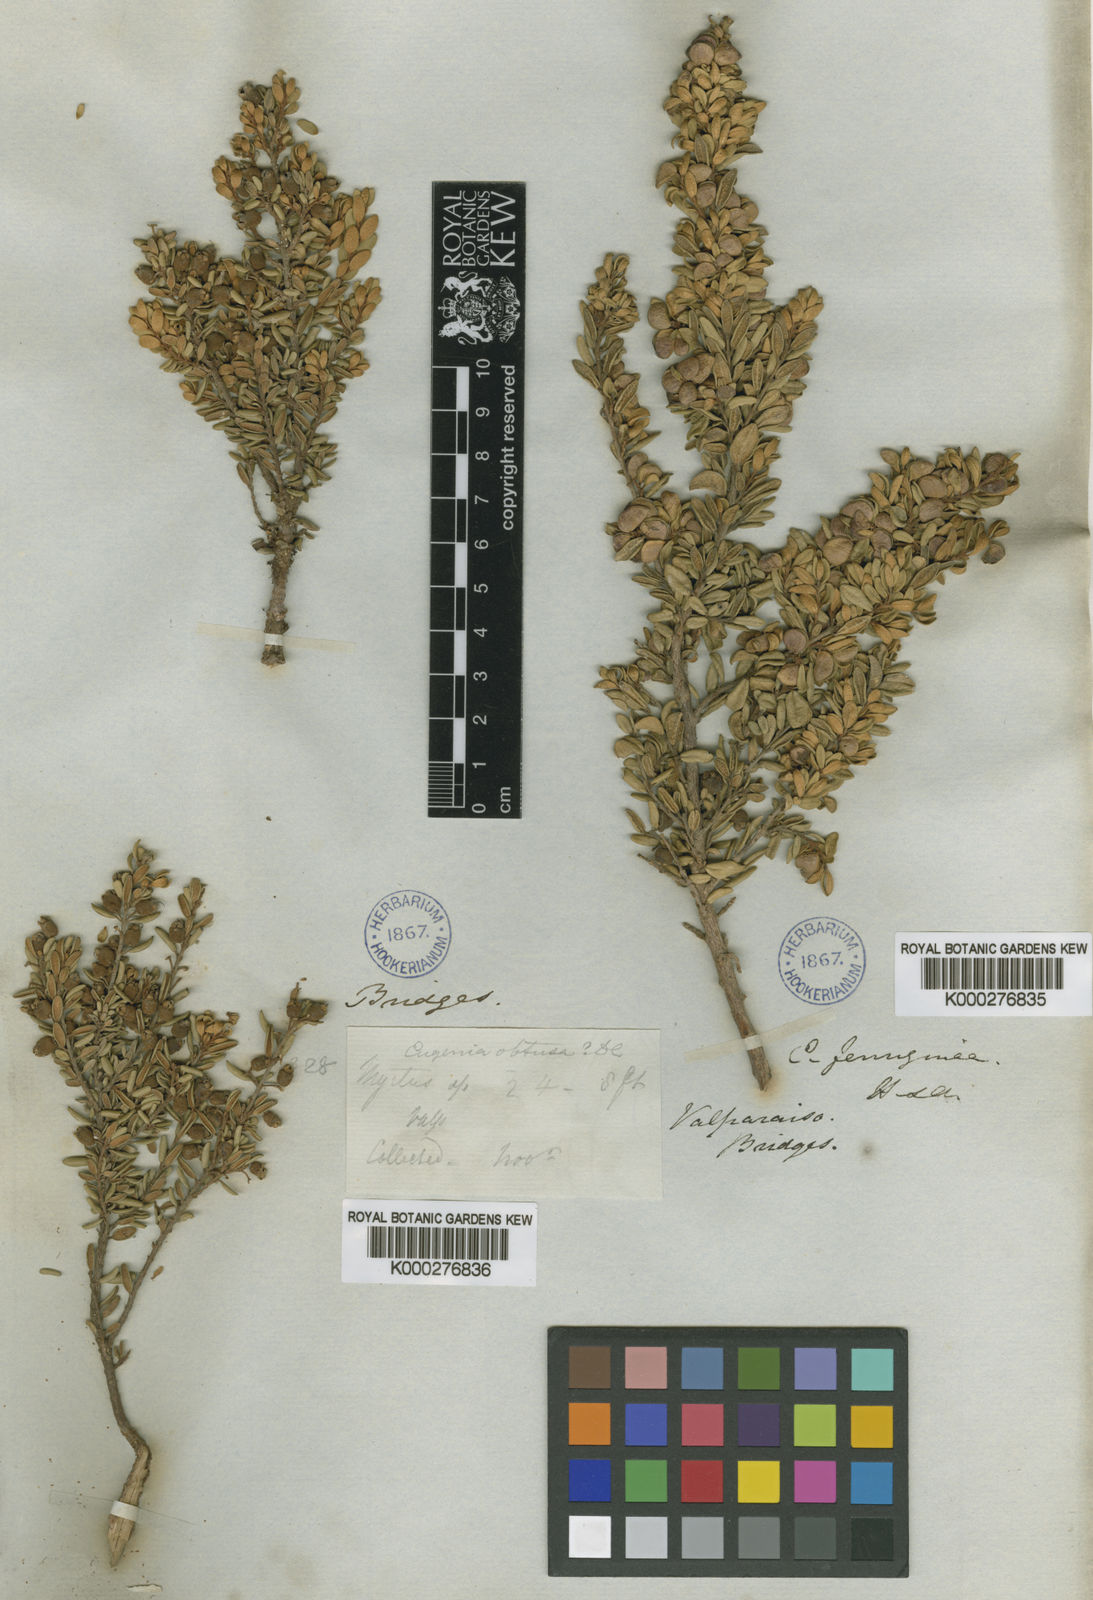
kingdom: Plantae
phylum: Tracheophyta
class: Magnoliopsida
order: Myrtales
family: Myrtaceae
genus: Myrceugenia
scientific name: Myrceugenia obtusa
